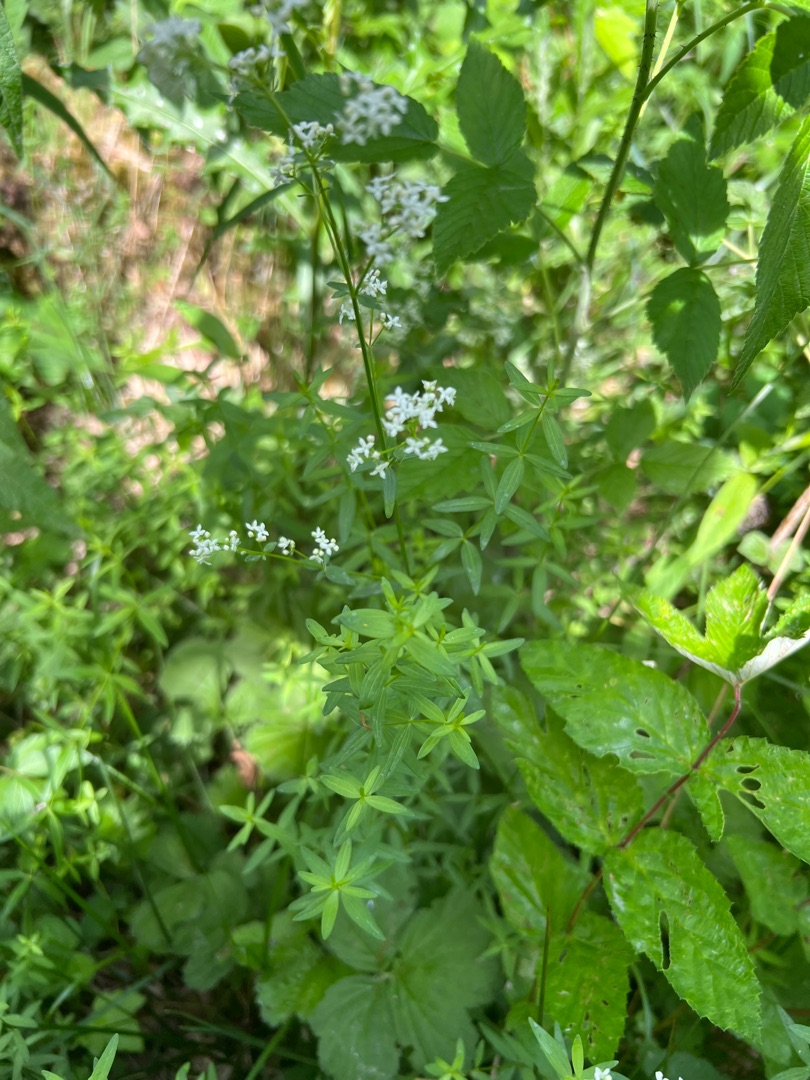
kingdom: Plantae
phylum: Tracheophyta
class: Magnoliopsida
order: Gentianales
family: Rubiaceae
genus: Galium
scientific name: Galium boreale
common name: Trenervet snerre
